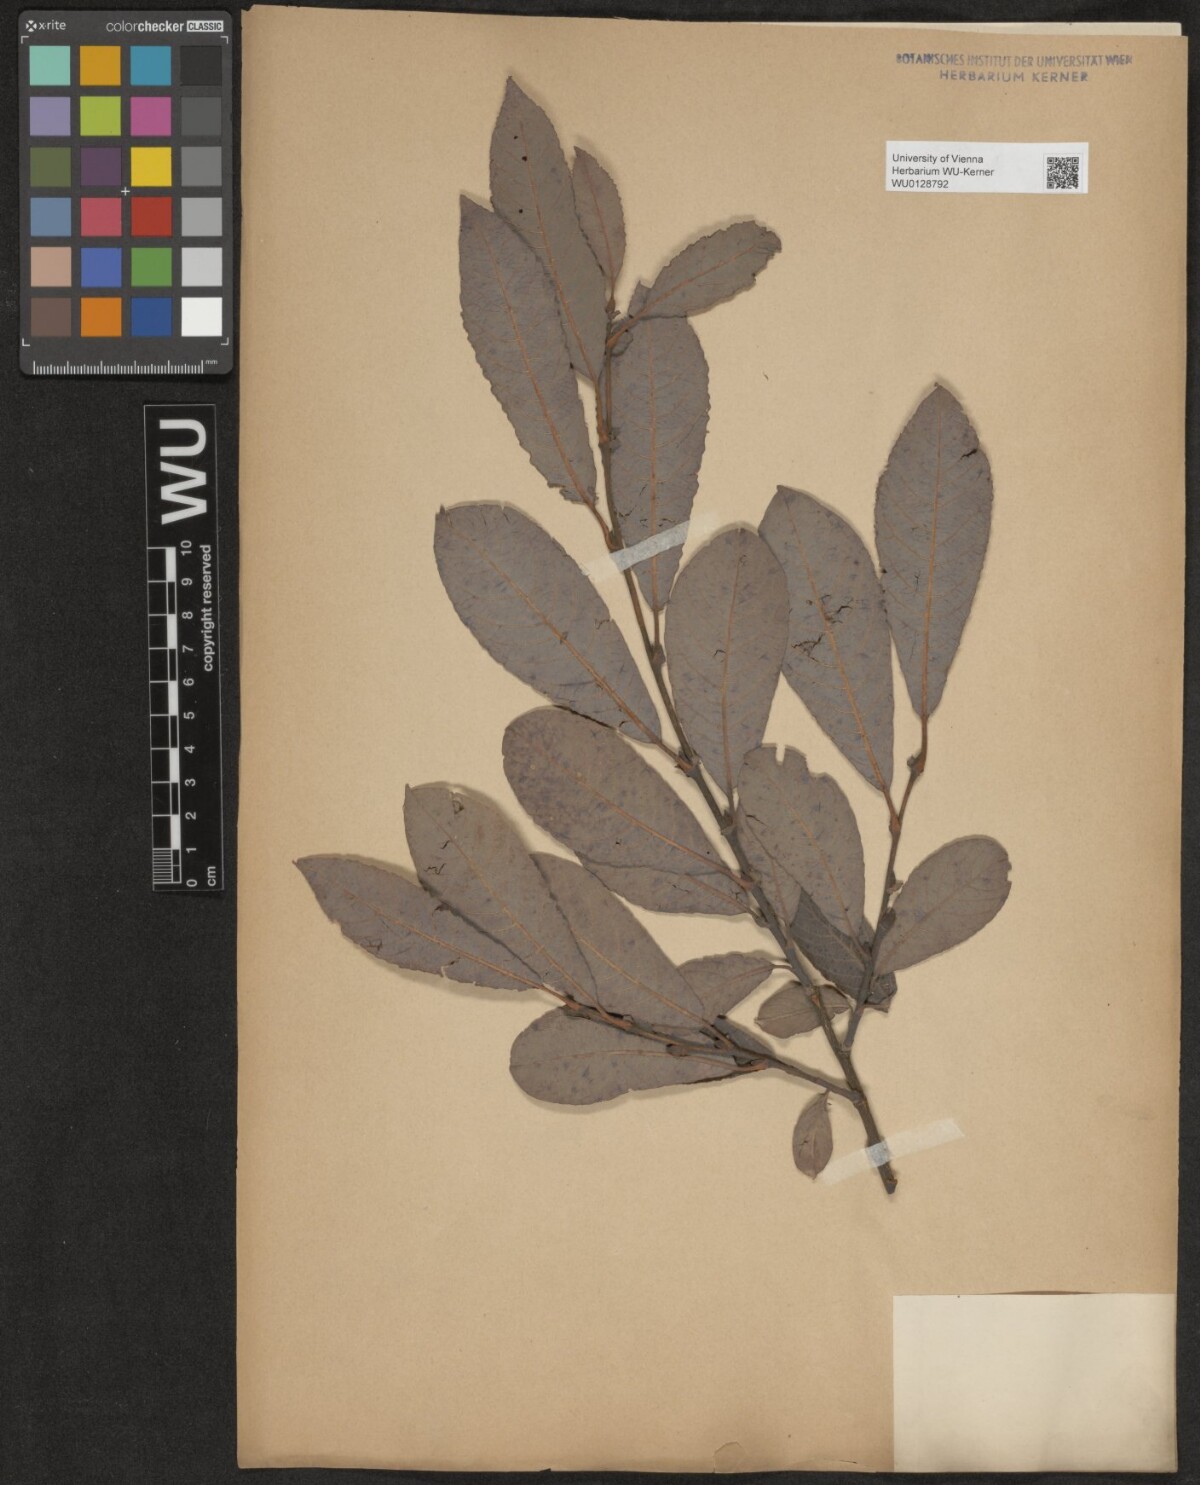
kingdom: Plantae
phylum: Tracheophyta
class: Magnoliopsida
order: Malpighiales
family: Salicaceae
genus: Salix
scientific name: Salix appendiculata
